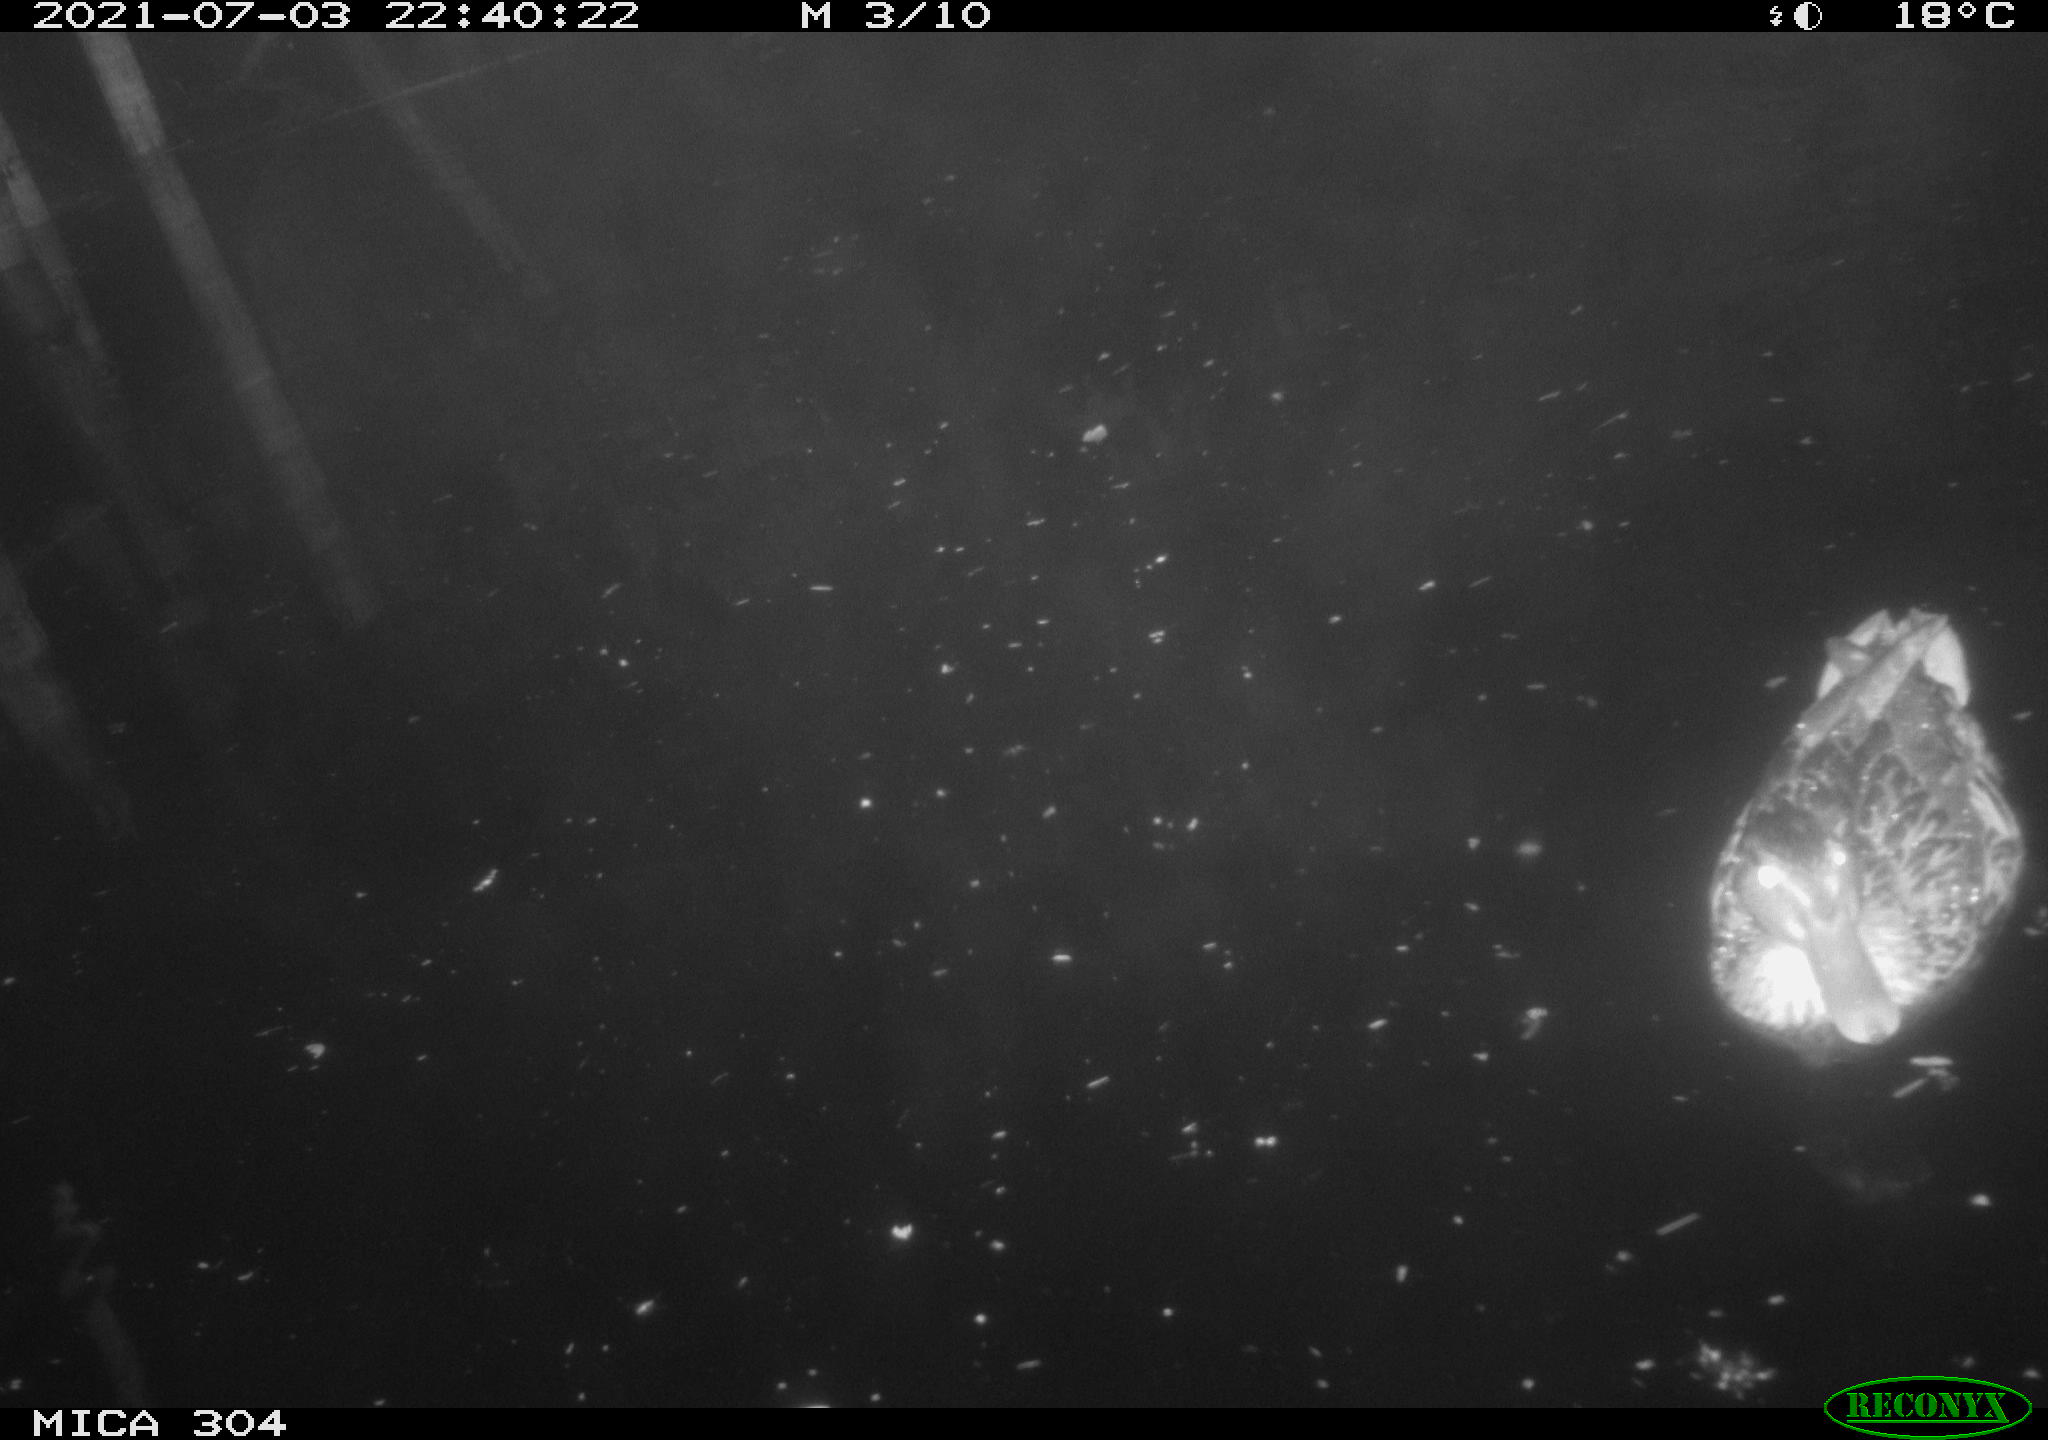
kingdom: Animalia
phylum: Chordata
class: Aves
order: Anseriformes
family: Anatidae
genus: Anas
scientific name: Anas platyrhynchos
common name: Mallard
